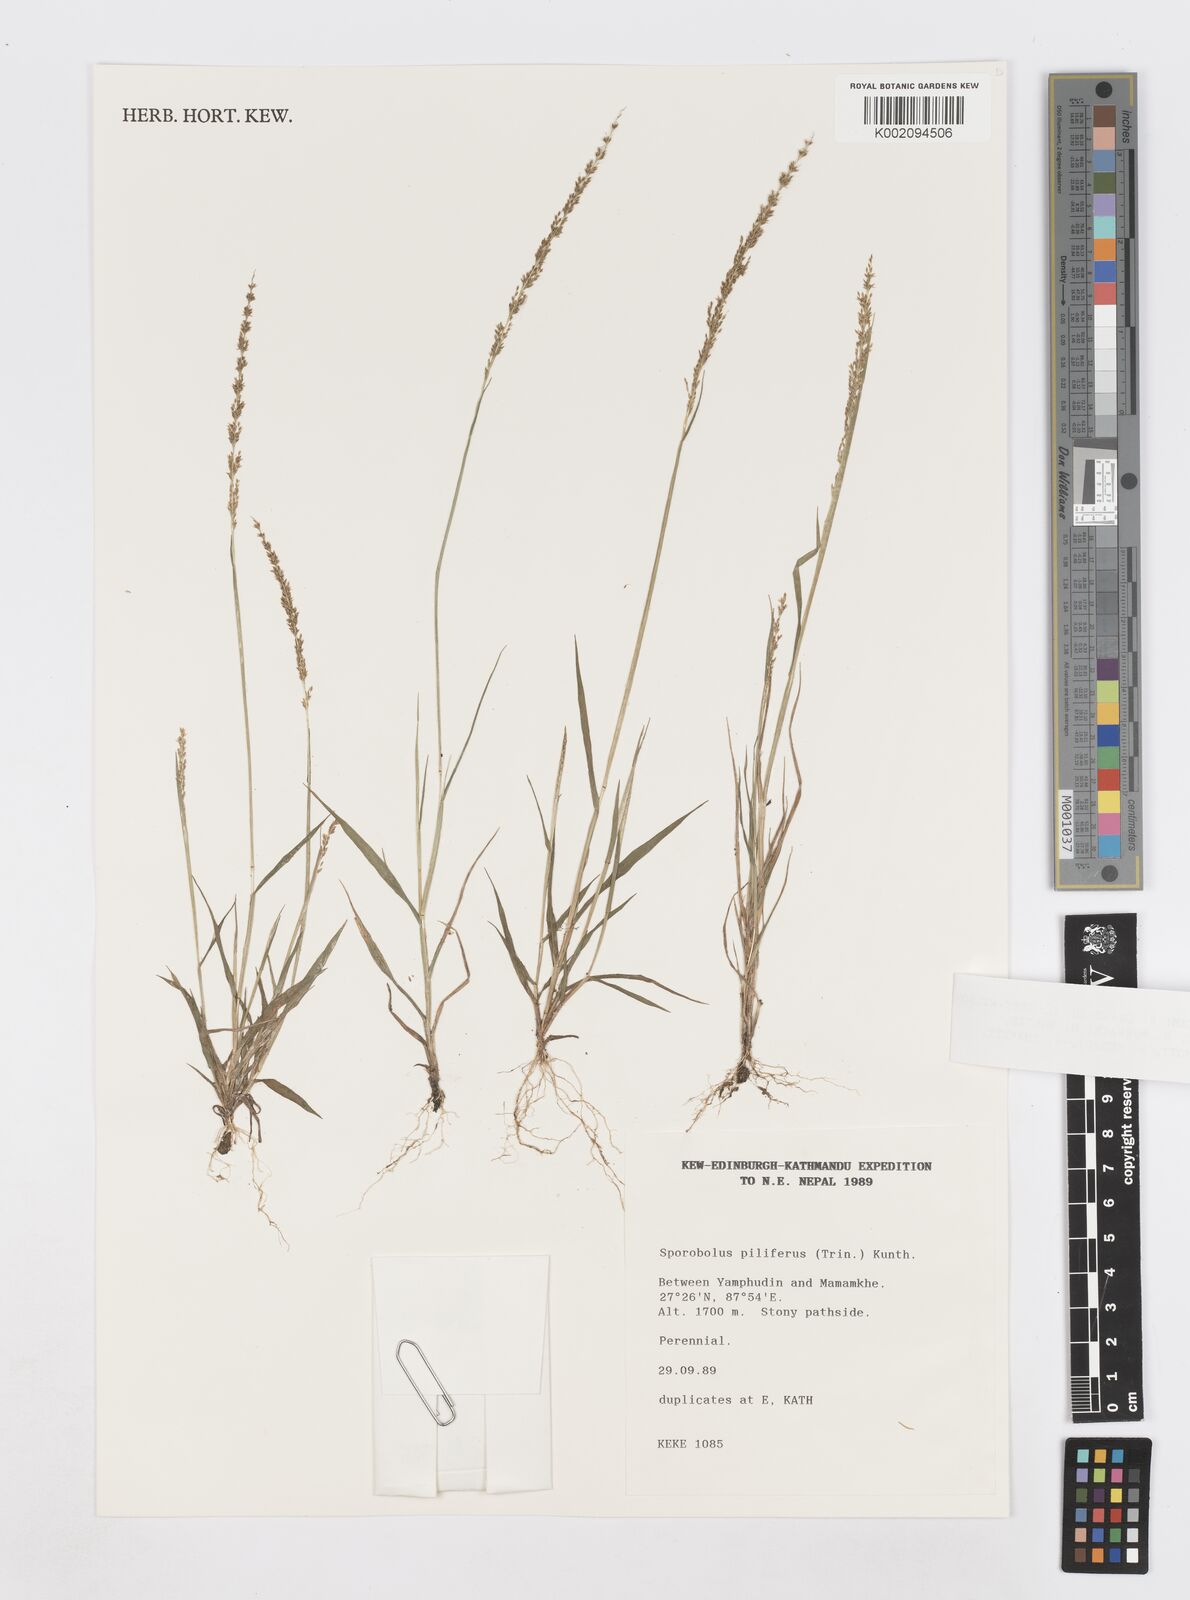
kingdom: Plantae
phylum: Tracheophyta
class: Liliopsida
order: Poales
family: Poaceae
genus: Sporobolus
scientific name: Sporobolus pilifer
